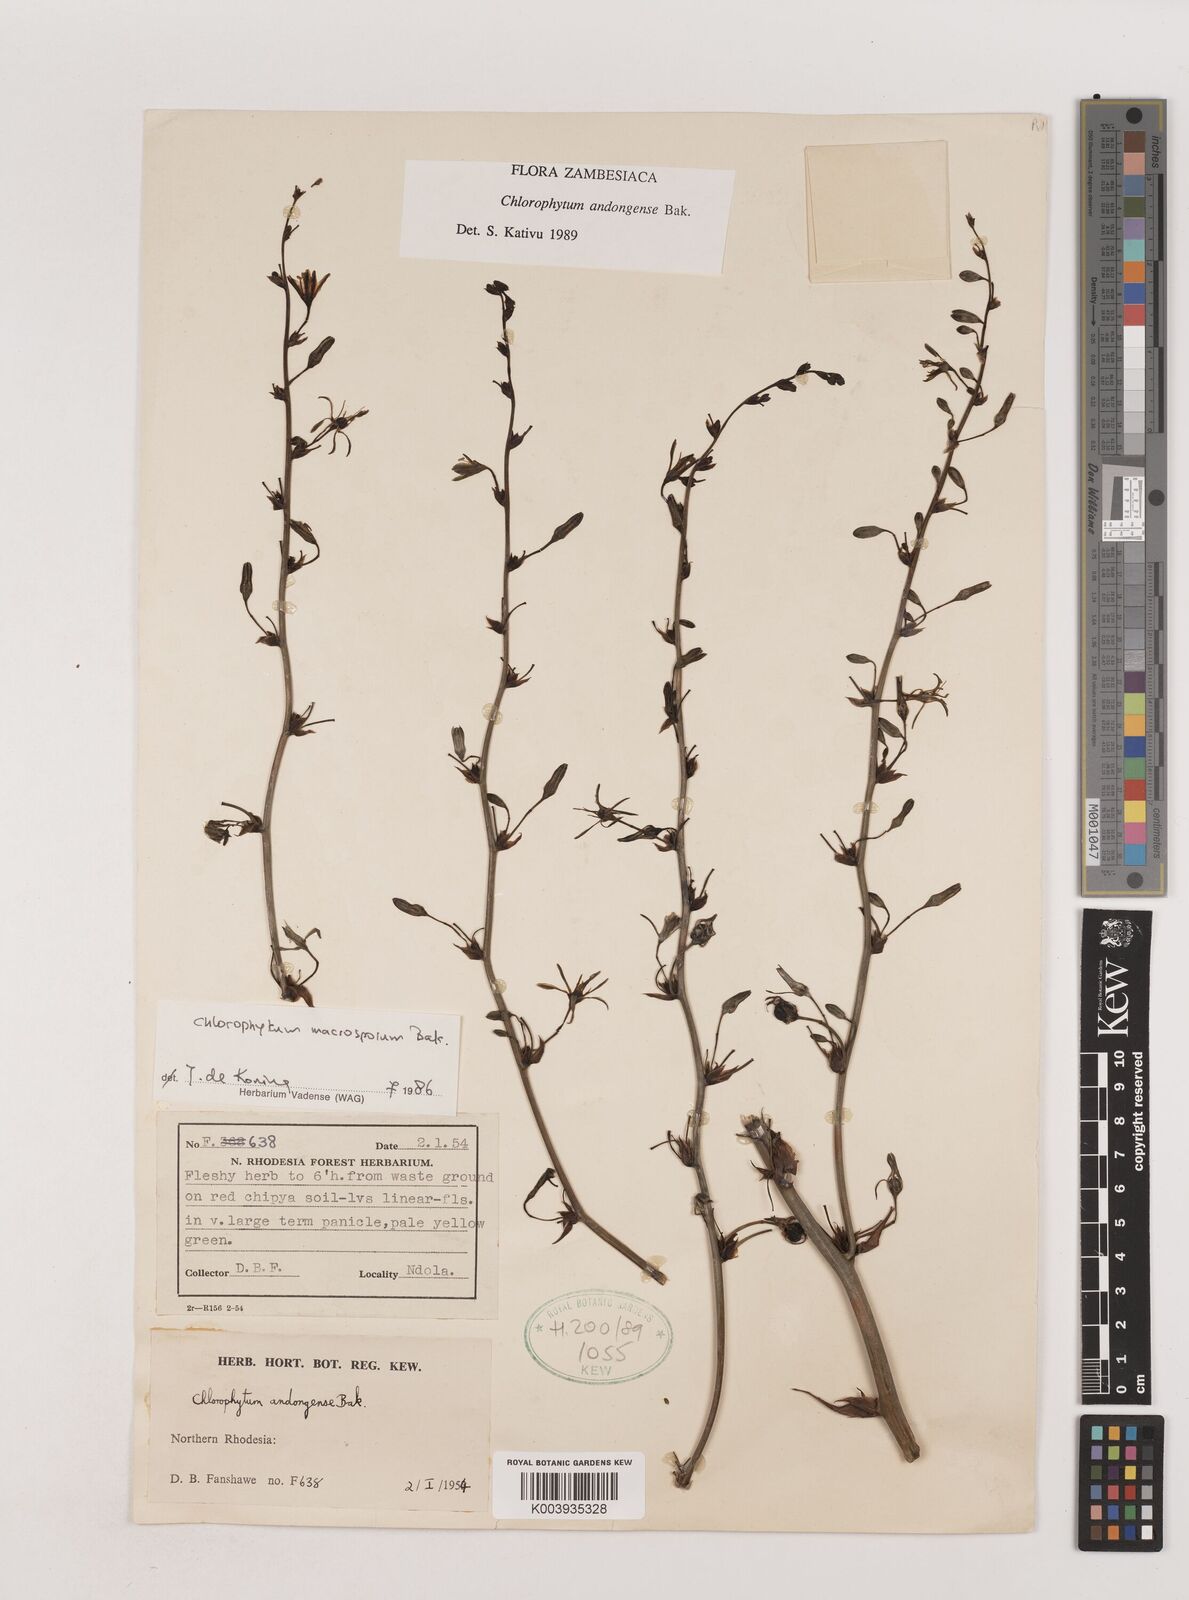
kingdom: Plantae
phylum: Tracheophyta
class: Liliopsida
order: Asparagales
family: Asparagaceae
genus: Chlorophytum
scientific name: Chlorophytum andongense
